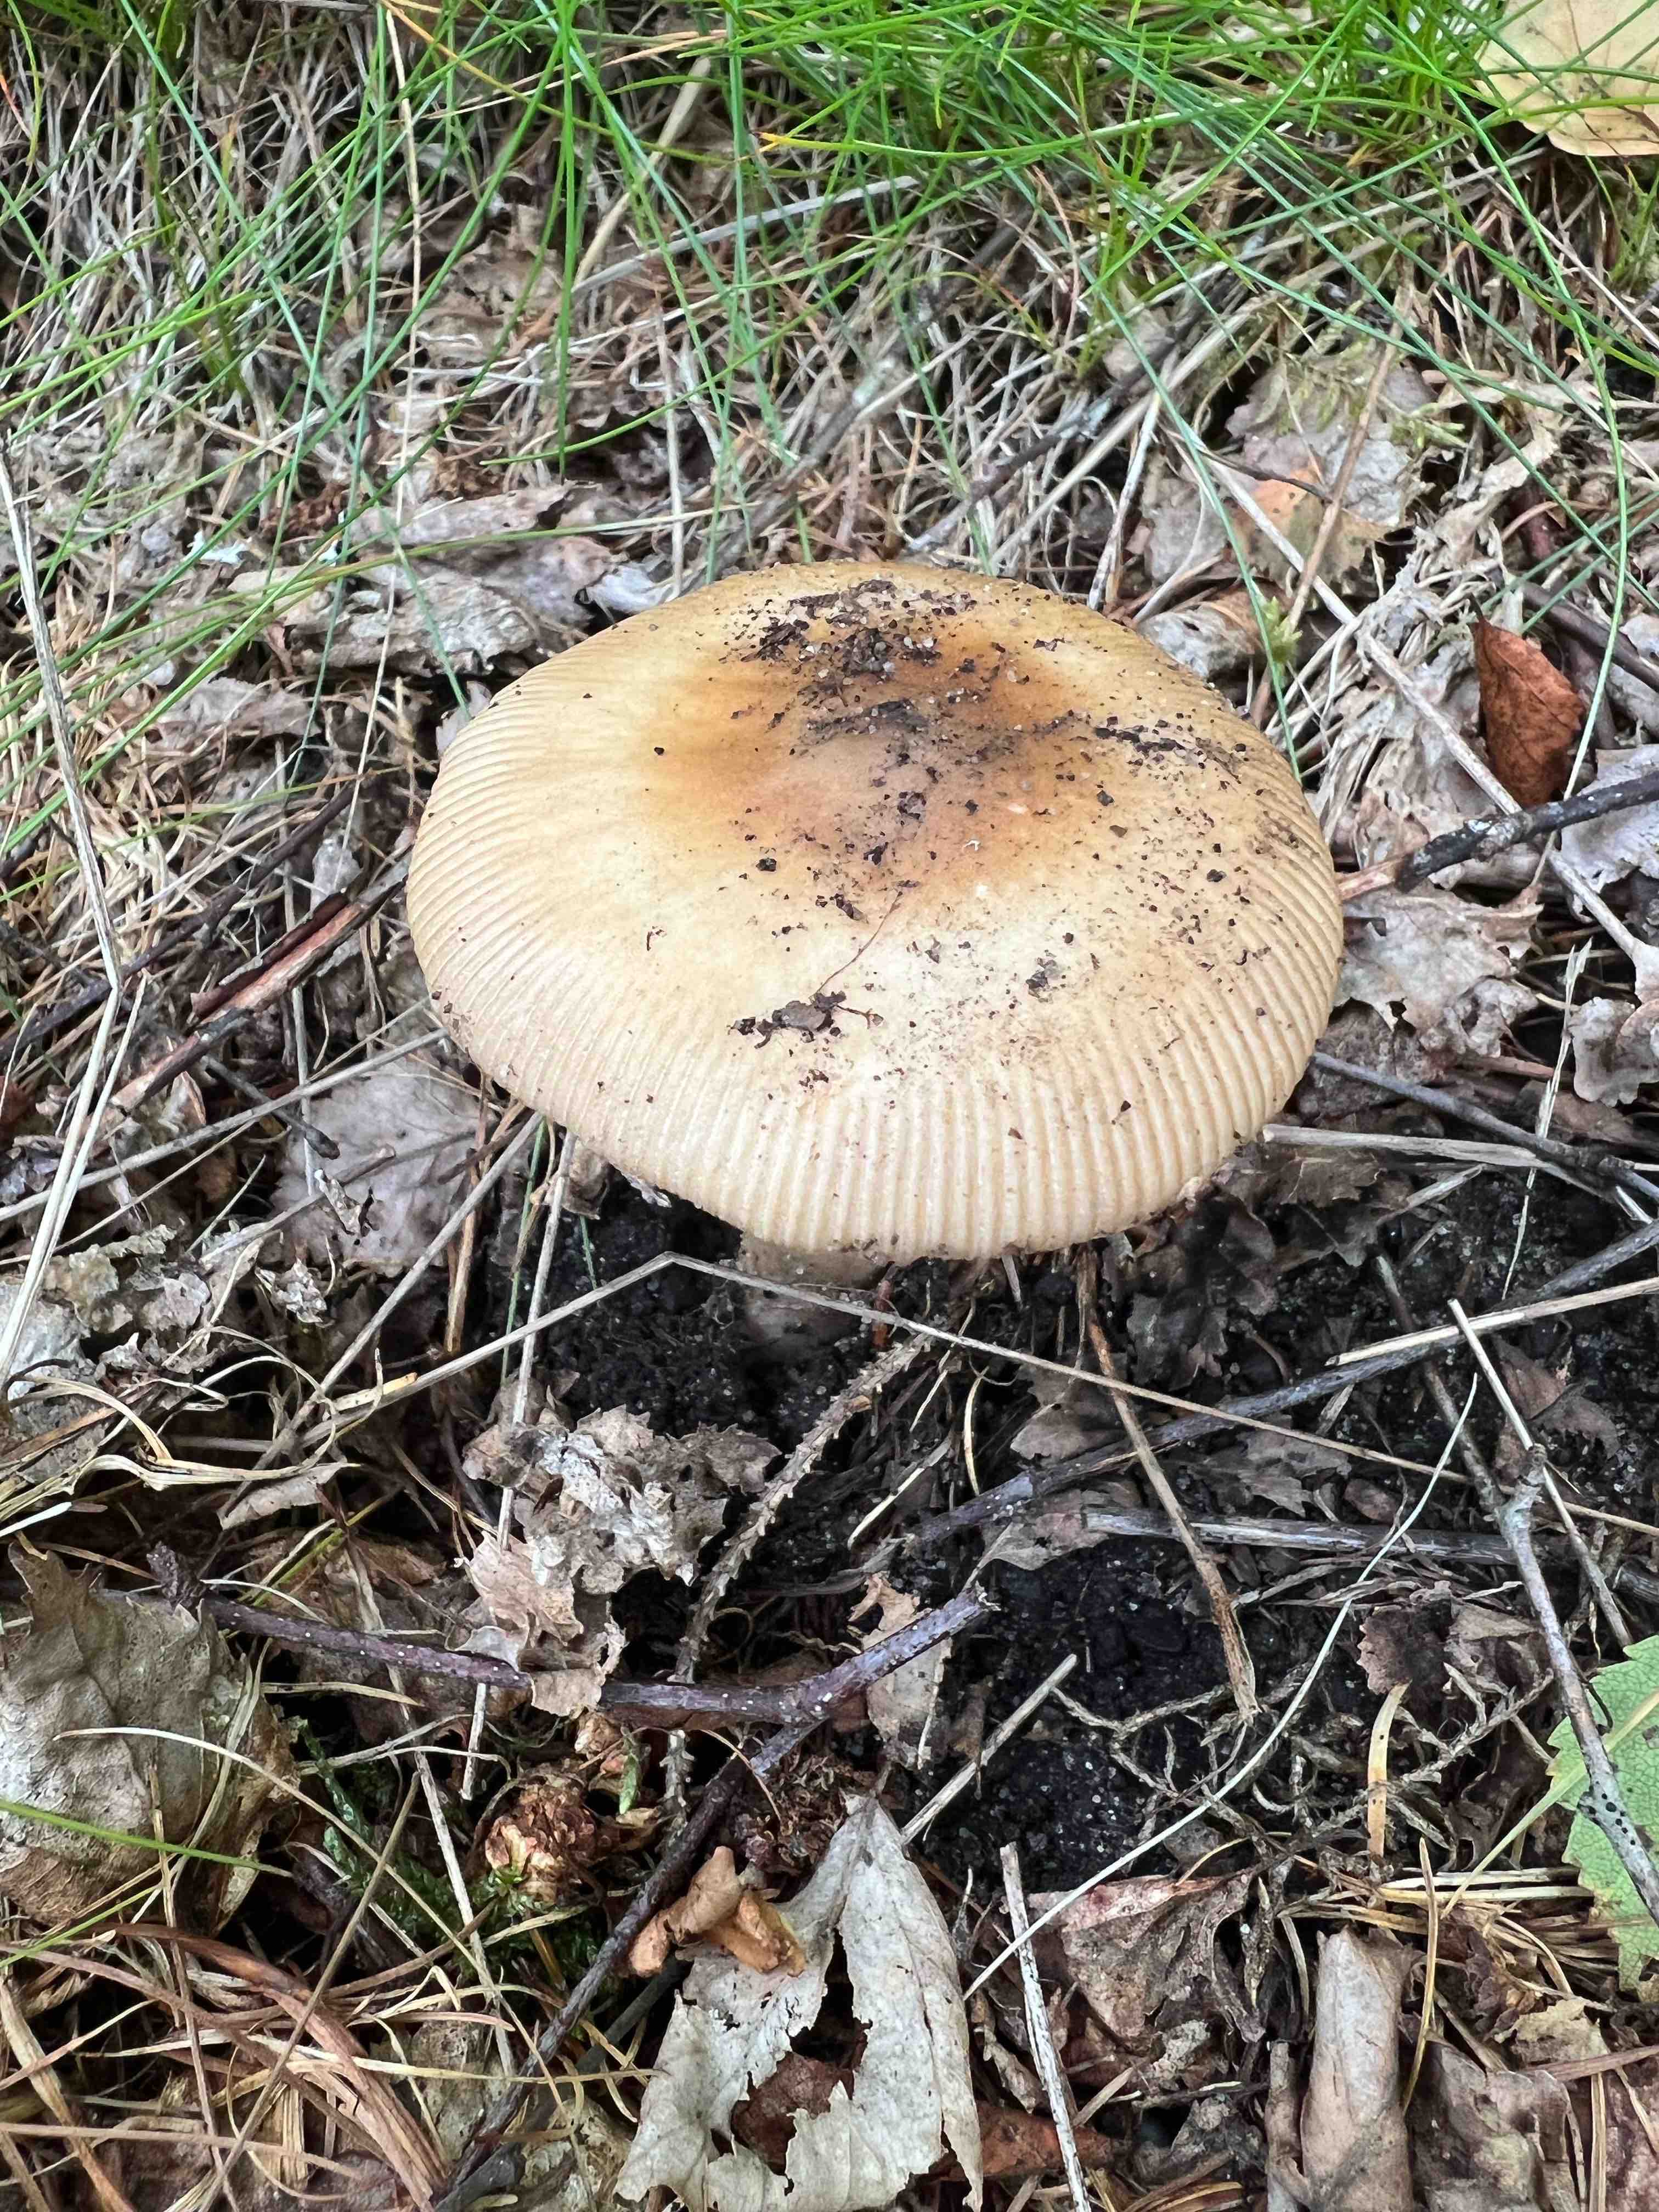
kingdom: Fungi
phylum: Basidiomycota
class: Agaricomycetes
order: Agaricales
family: Amanitaceae
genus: Amanita
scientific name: Amanita fulva
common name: brun kam-fluesvamp
